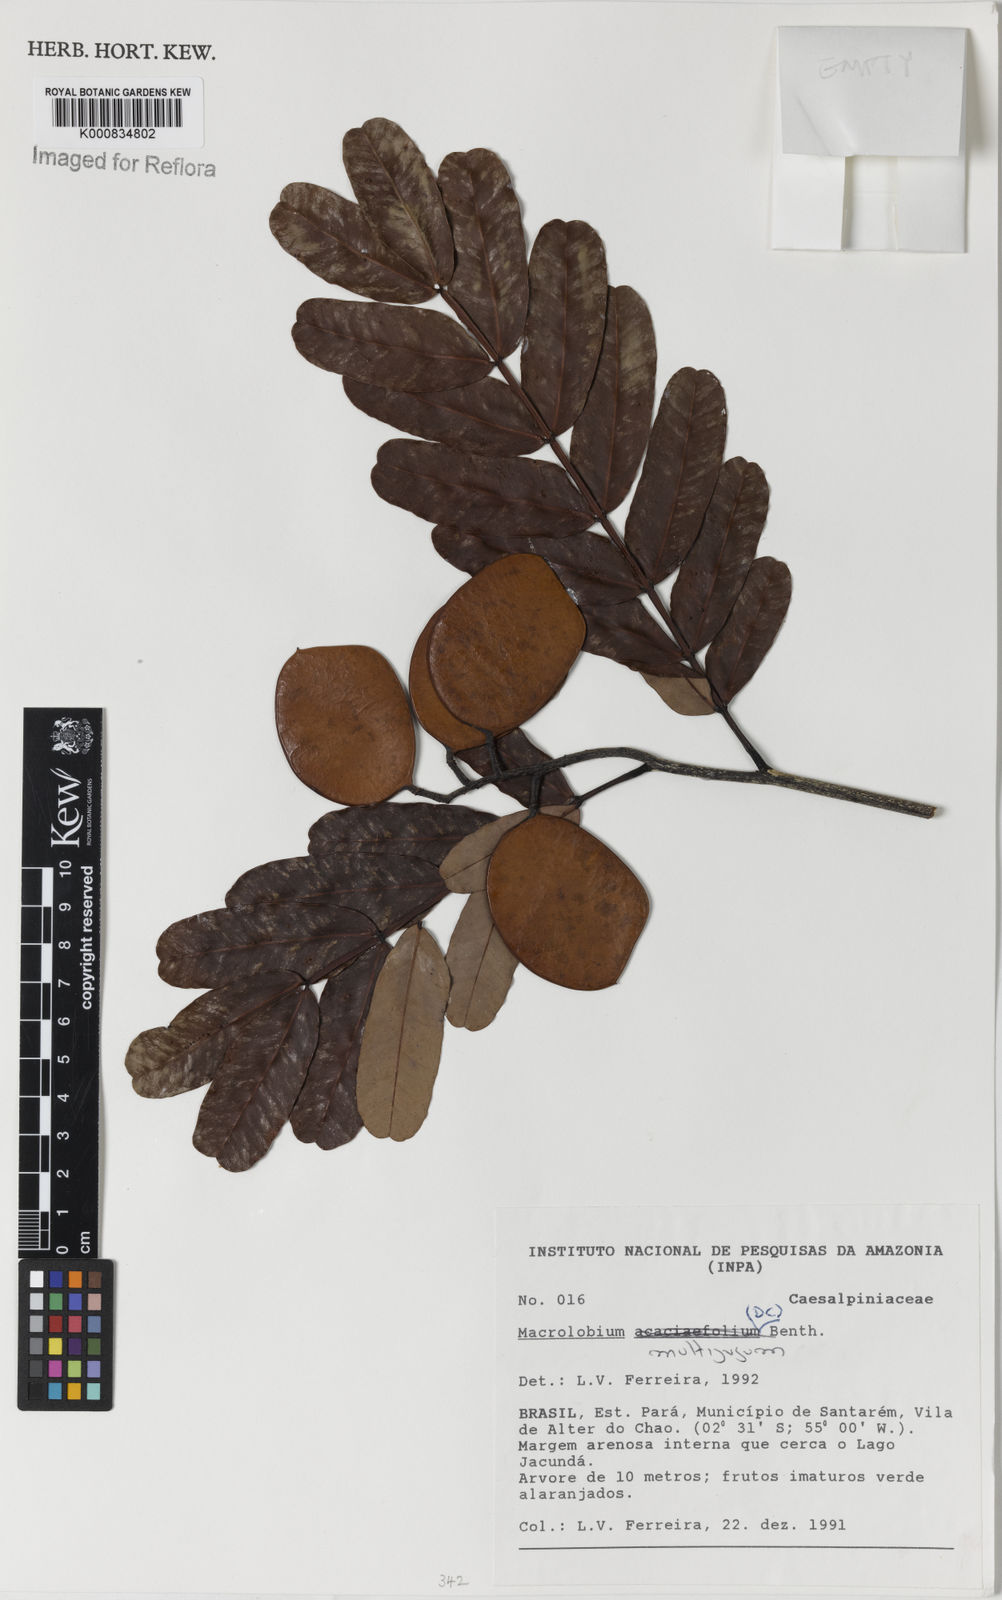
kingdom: Plantae
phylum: Tracheophyta
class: Magnoliopsida
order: Fabales
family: Fabaceae
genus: Macrolobium
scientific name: Macrolobium multijugum
